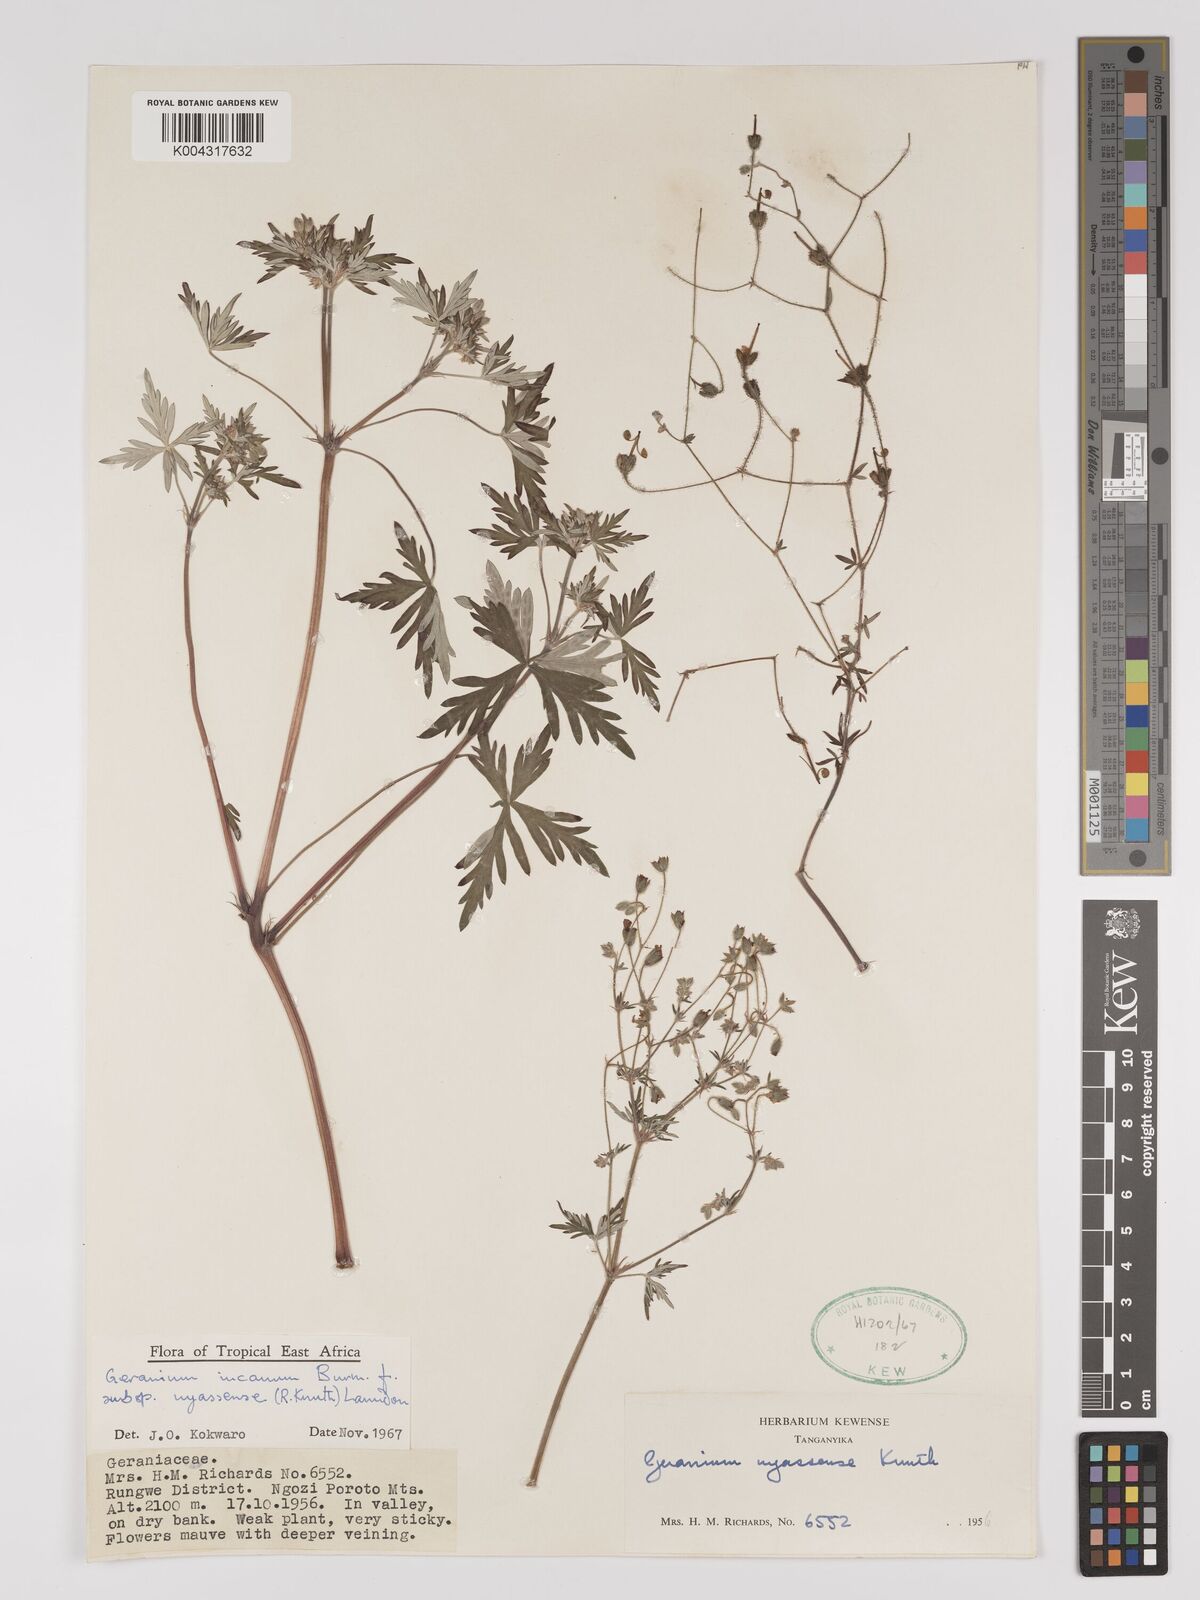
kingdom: Plantae
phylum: Tracheophyta
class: Magnoliopsida
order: Geraniales
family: Geraniaceae
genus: Geranium
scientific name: Geranium incanum
